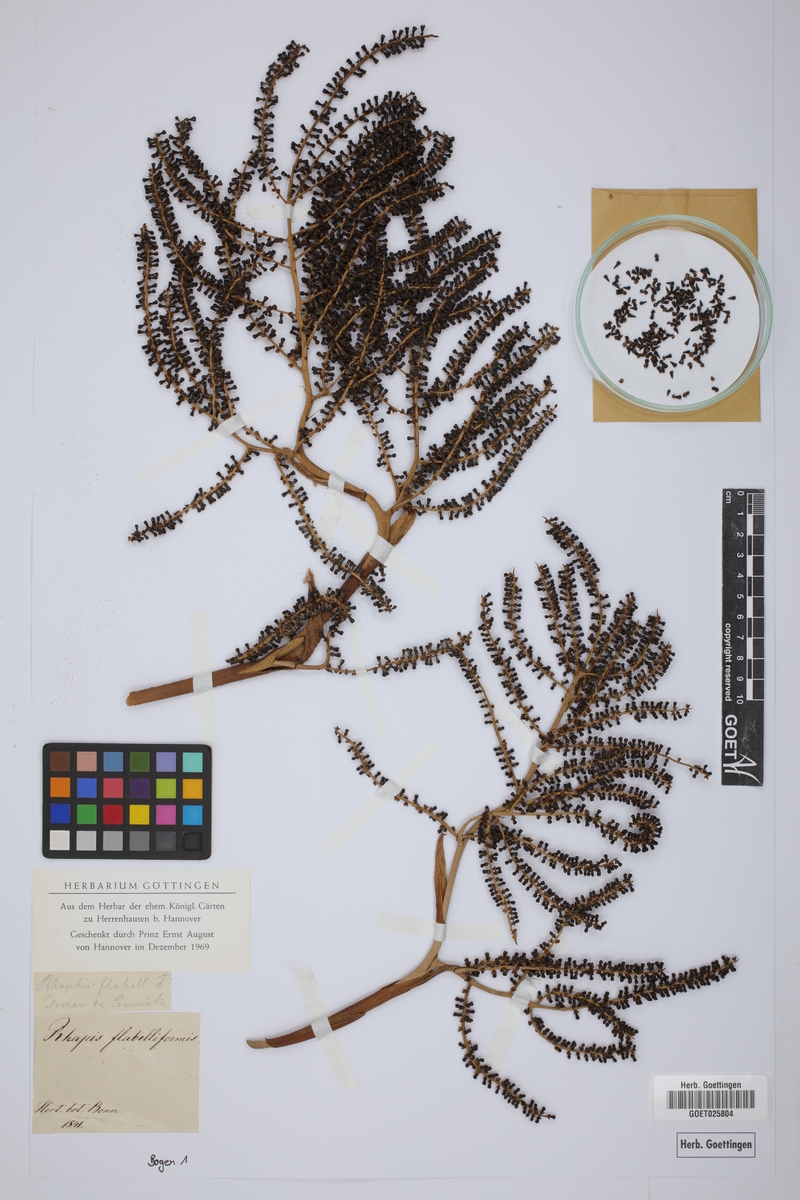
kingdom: Plantae
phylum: Tracheophyta
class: Liliopsida
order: Arecales
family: Arecaceae
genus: Rhapis
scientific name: Rhapis excelsa
